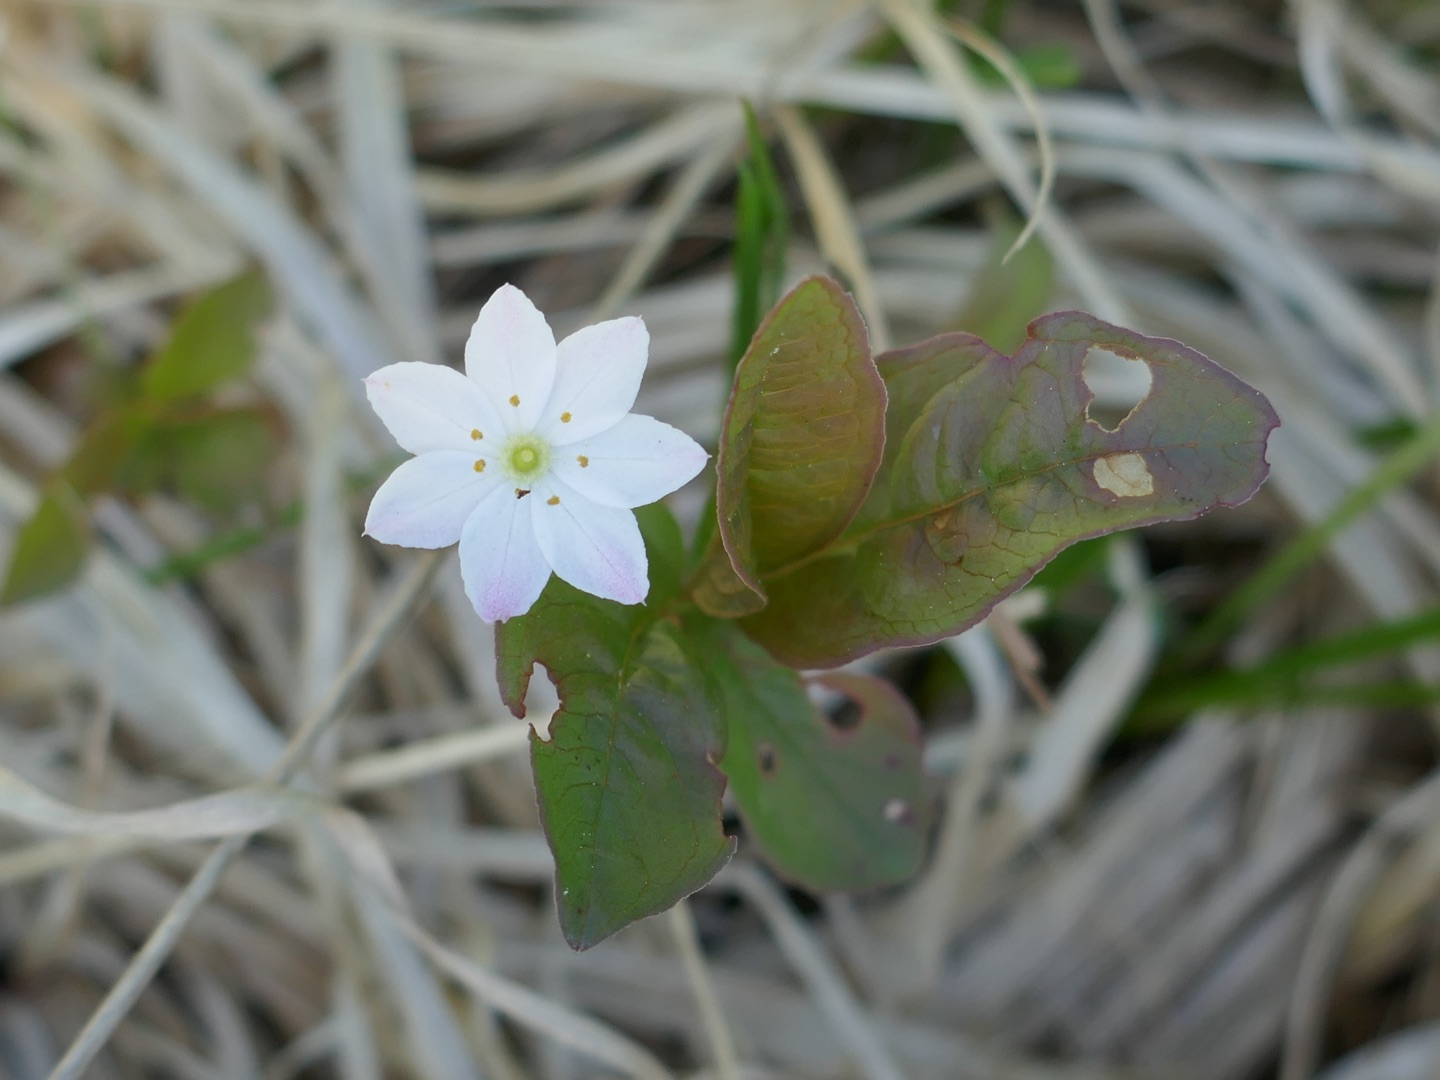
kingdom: Plantae
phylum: Tracheophyta
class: Magnoliopsida
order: Ericales
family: Primulaceae
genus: Lysimachia
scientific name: Lysimachia europaea
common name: Skovstjerne
